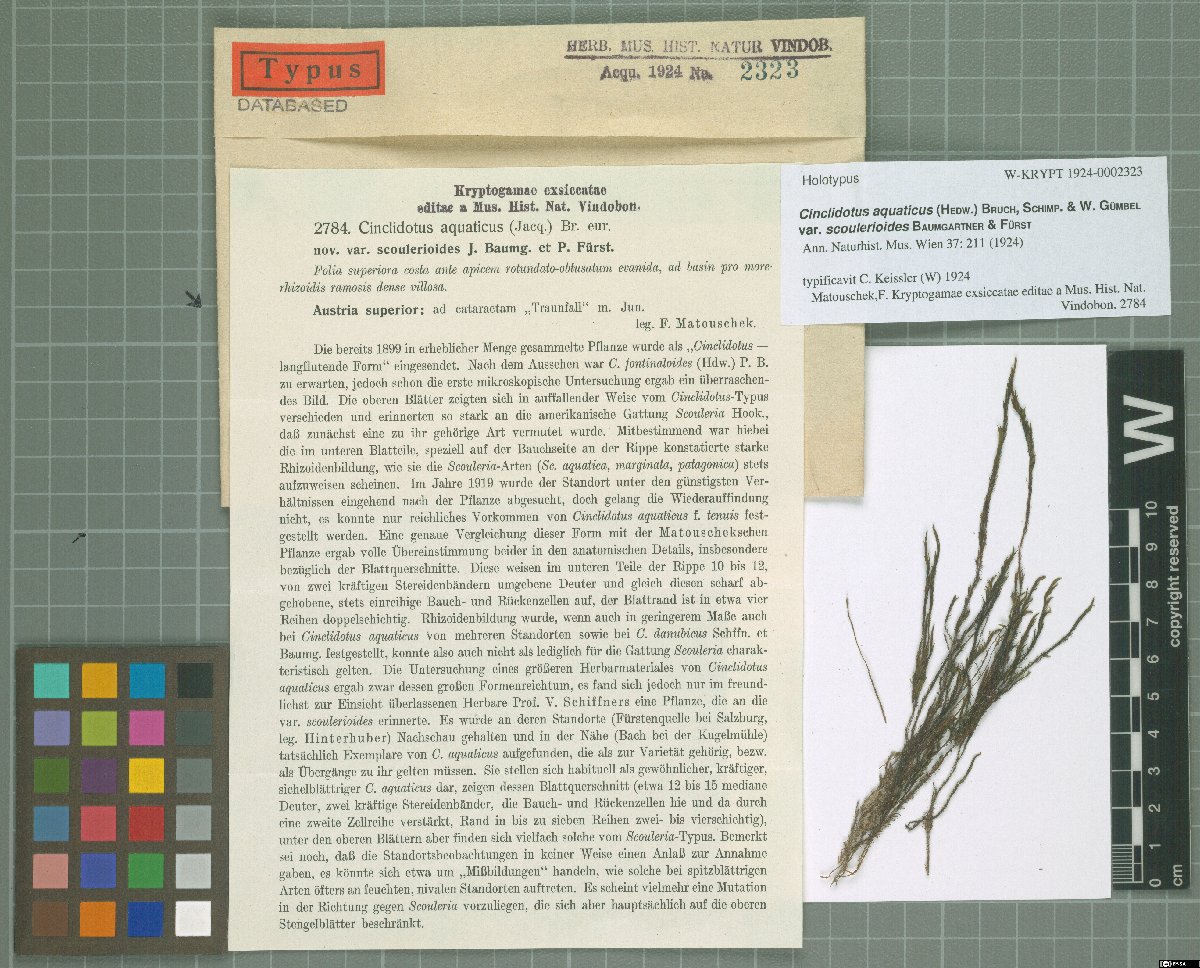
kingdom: Plantae
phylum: Bryophyta
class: Bryopsida
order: Pottiales
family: Pottiaceae
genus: Cinclidotus
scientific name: Cinclidotus aquaticus
